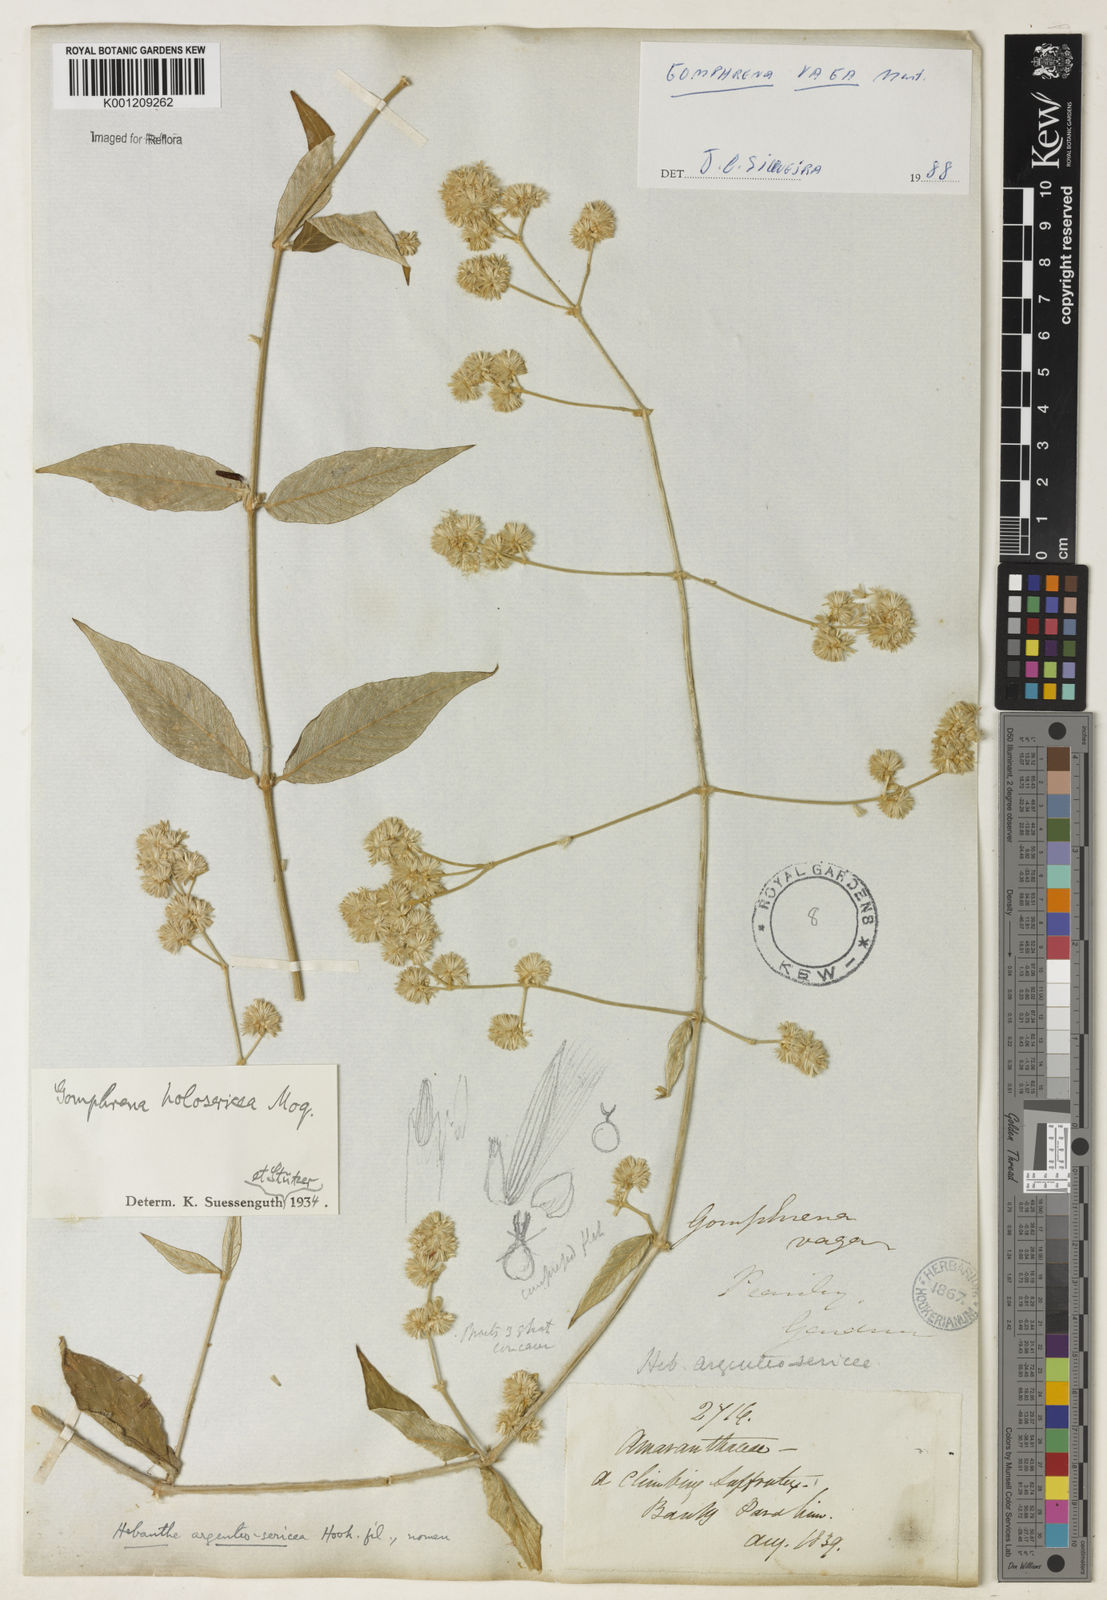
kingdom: Plantae
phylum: Tracheophyta
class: Magnoliopsida
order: Caryophyllales
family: Amaranthaceae
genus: Gomphrena
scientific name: Gomphrena vaga
